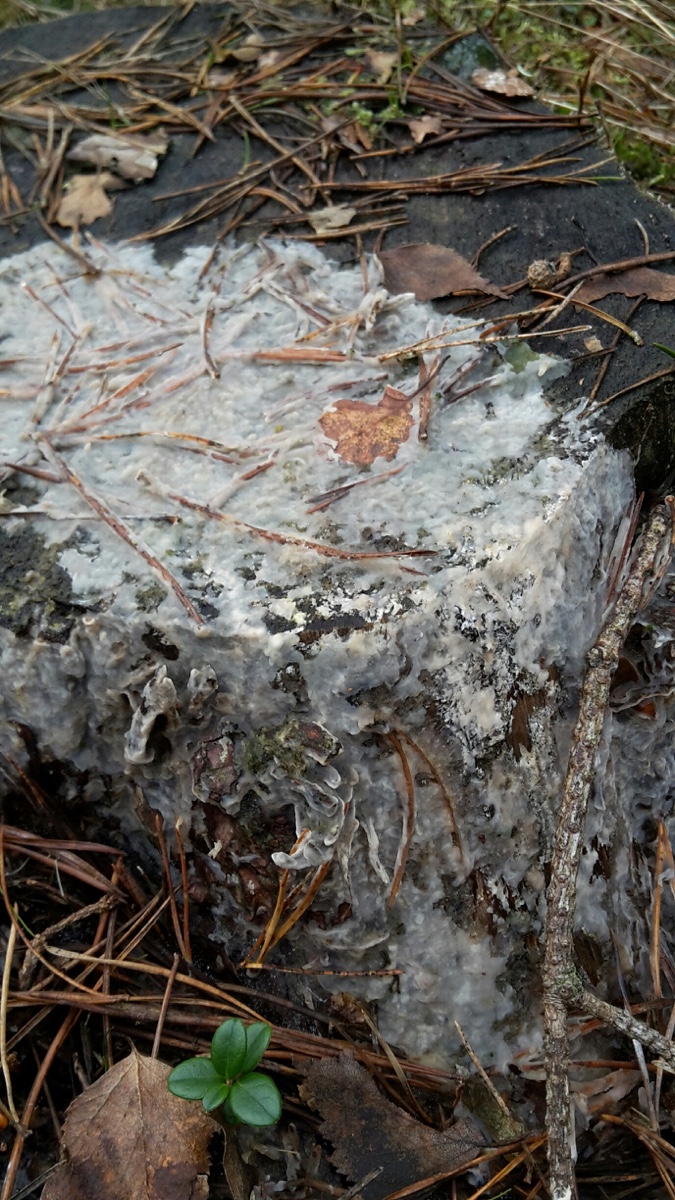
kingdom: Fungi
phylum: Basidiomycota
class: Agaricomycetes
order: Polyporales
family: Phanerochaetaceae
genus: Phlebiopsis
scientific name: Phlebiopsis gigantea
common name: kæmpebarksvamp
